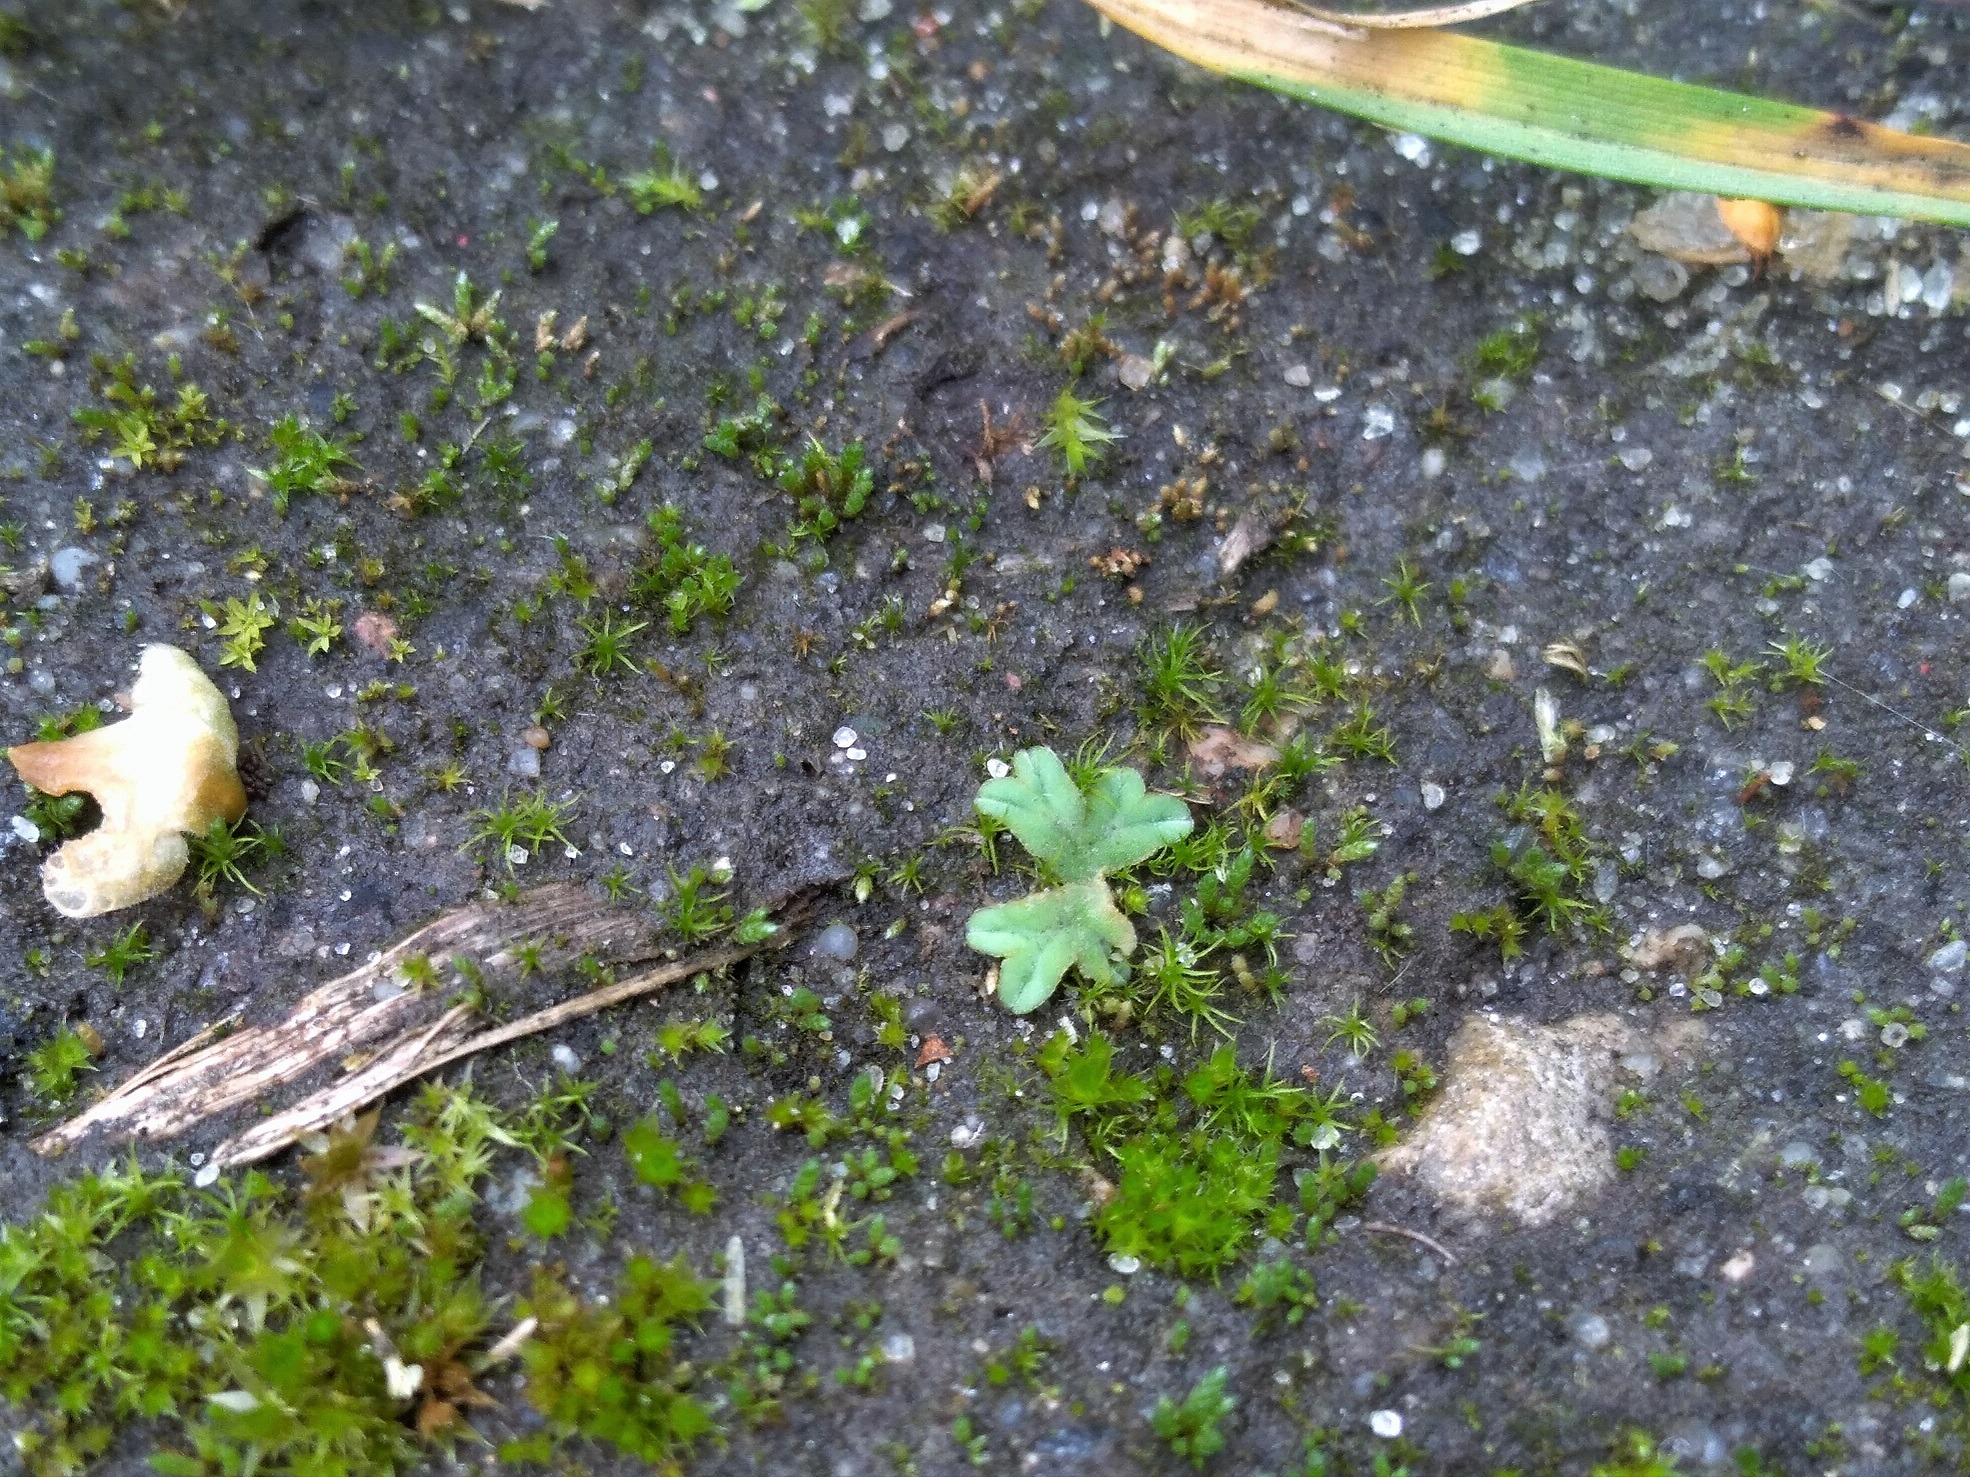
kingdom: Plantae
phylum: Marchantiophyta
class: Marchantiopsida
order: Marchantiales
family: Ricciaceae
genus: Riccia
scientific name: Riccia glauca
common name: Blågrøn stjerneløv
